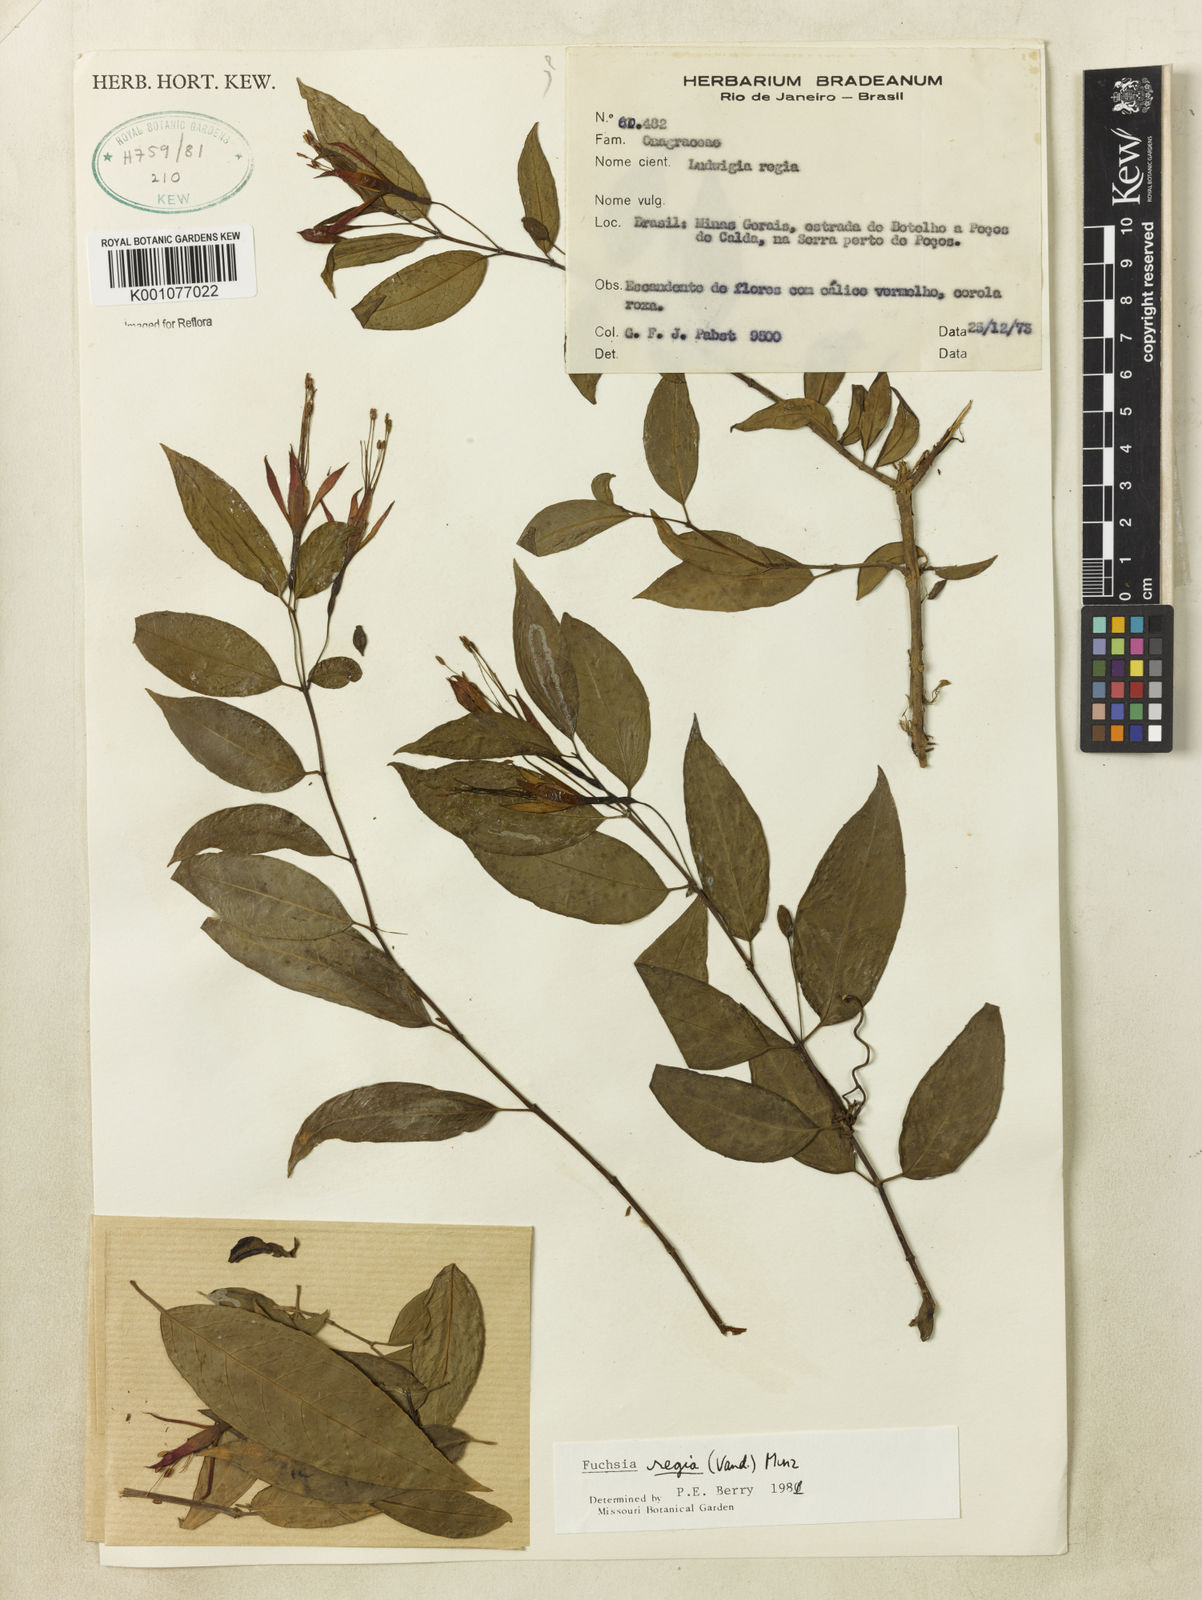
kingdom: Plantae
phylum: Tracheophyta
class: Magnoliopsida
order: Myrtales
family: Onagraceae
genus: Fuchsia
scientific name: Fuchsia regia
